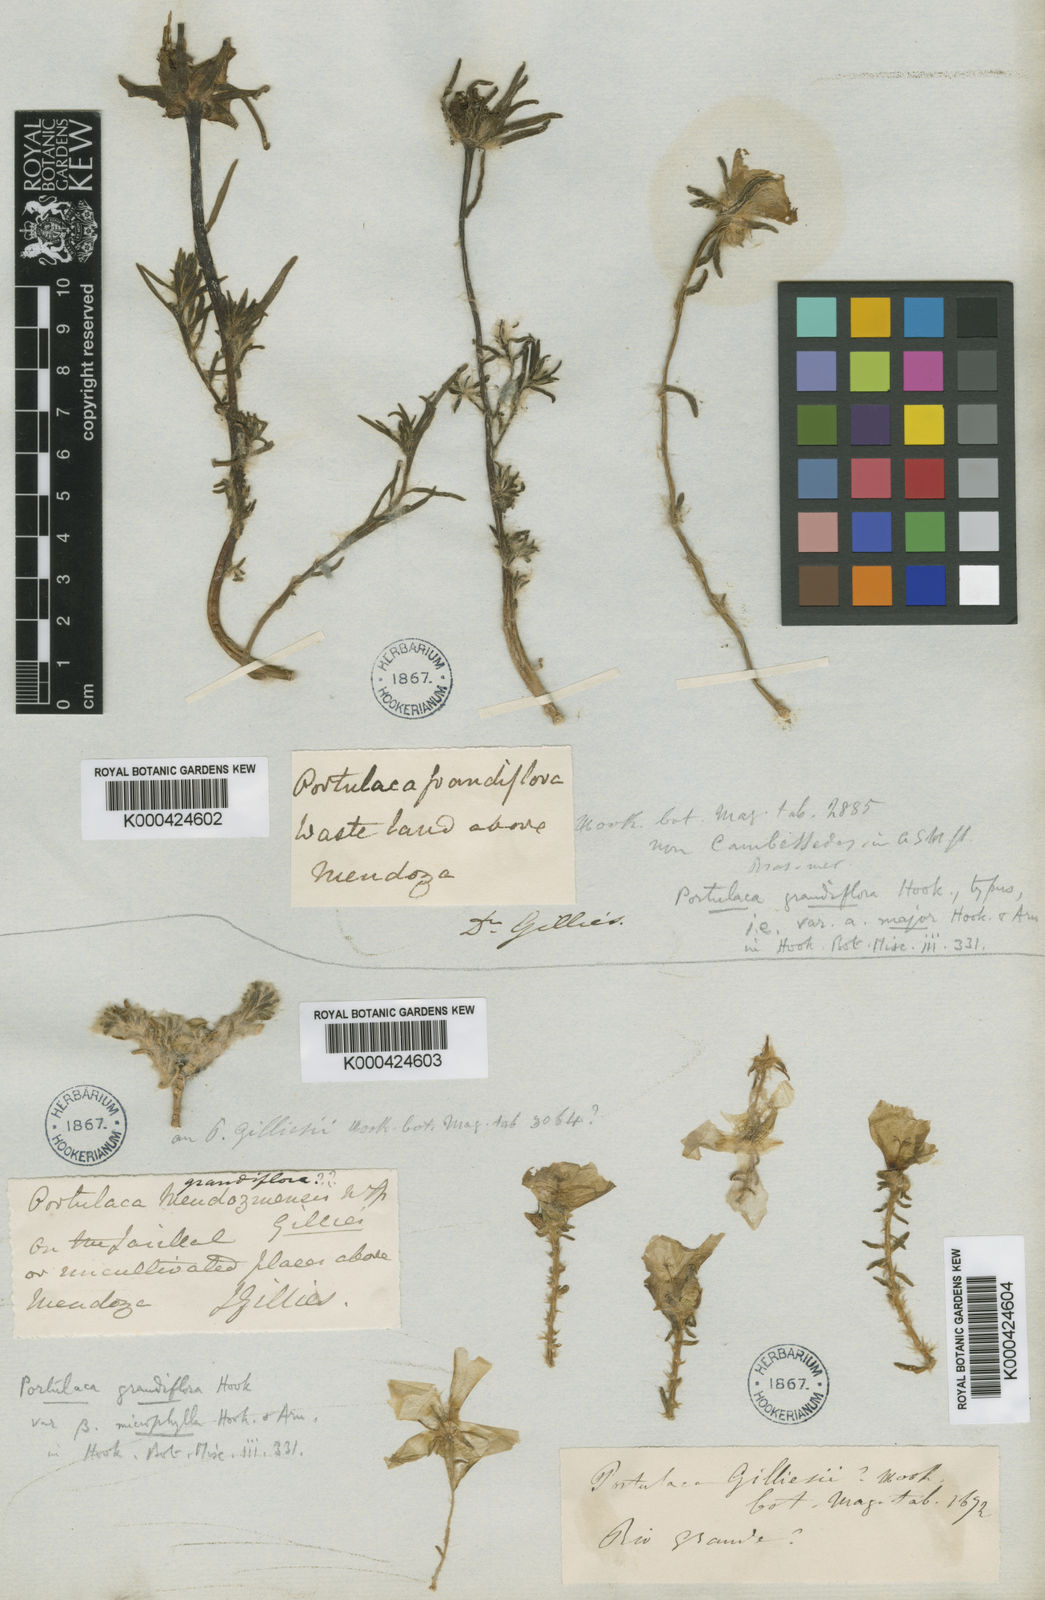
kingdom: Plantae
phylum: Tracheophyta
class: Magnoliopsida
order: Caryophyllales
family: Portulacaceae
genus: Portulaca
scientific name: Portulaca grandiflora
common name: Moss-rose
